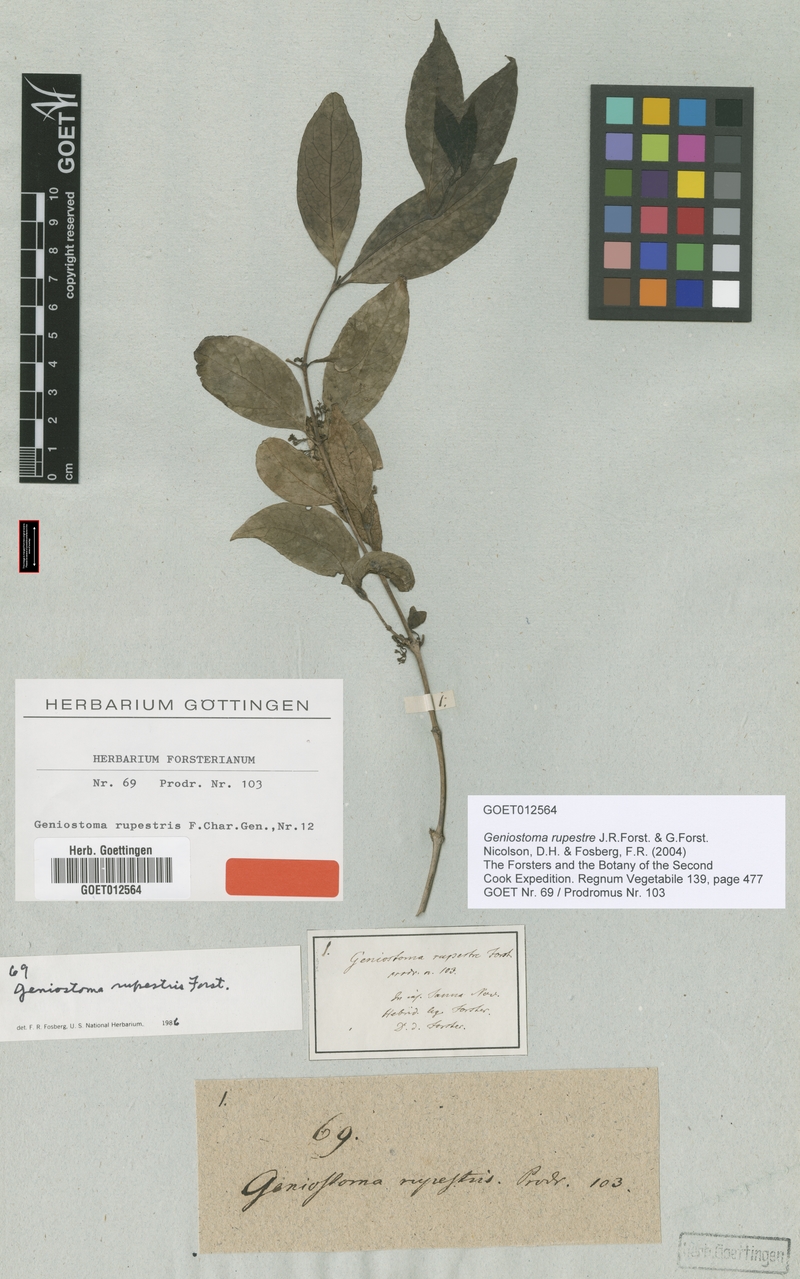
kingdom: Plantae
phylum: Tracheophyta
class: Magnoliopsida
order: Gentianales
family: Loganiaceae
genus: Geniostoma
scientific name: Geniostoma rupestre
